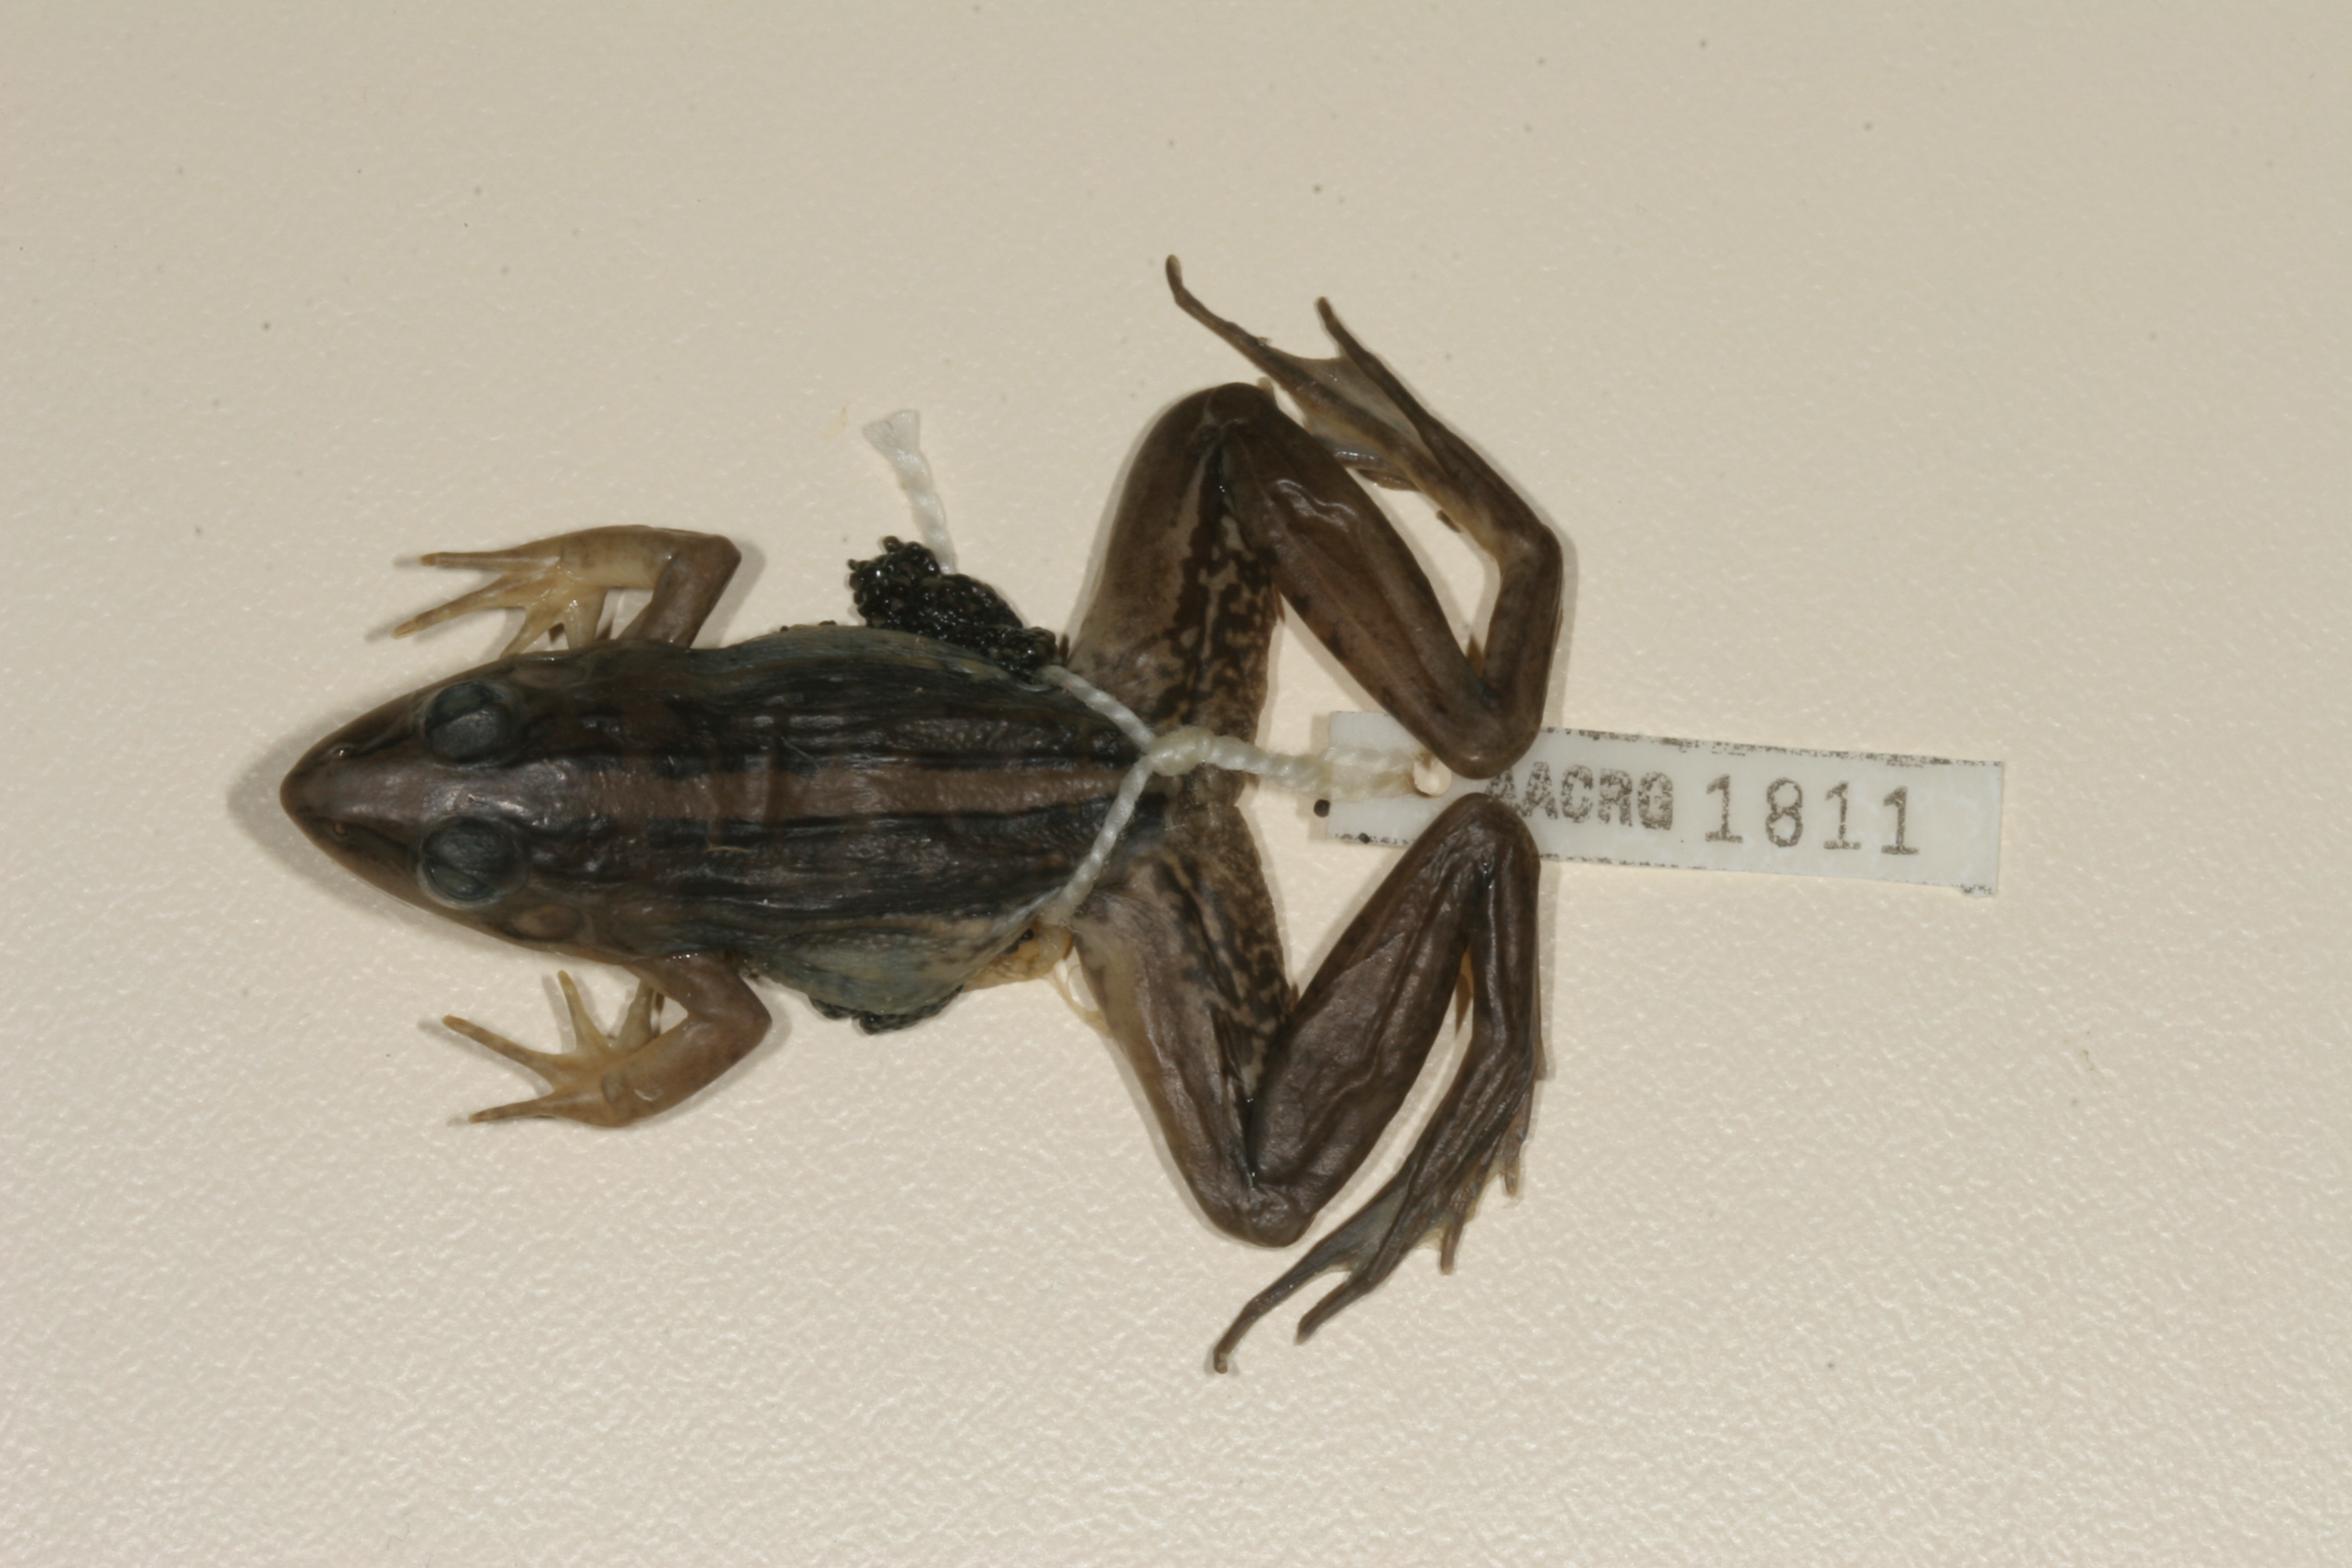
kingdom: Animalia
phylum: Chordata
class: Amphibia
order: Anura
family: Ptychadenidae
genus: Ptychadena
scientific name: Ptychadena mascareniensis
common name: Mascarene grass frog
